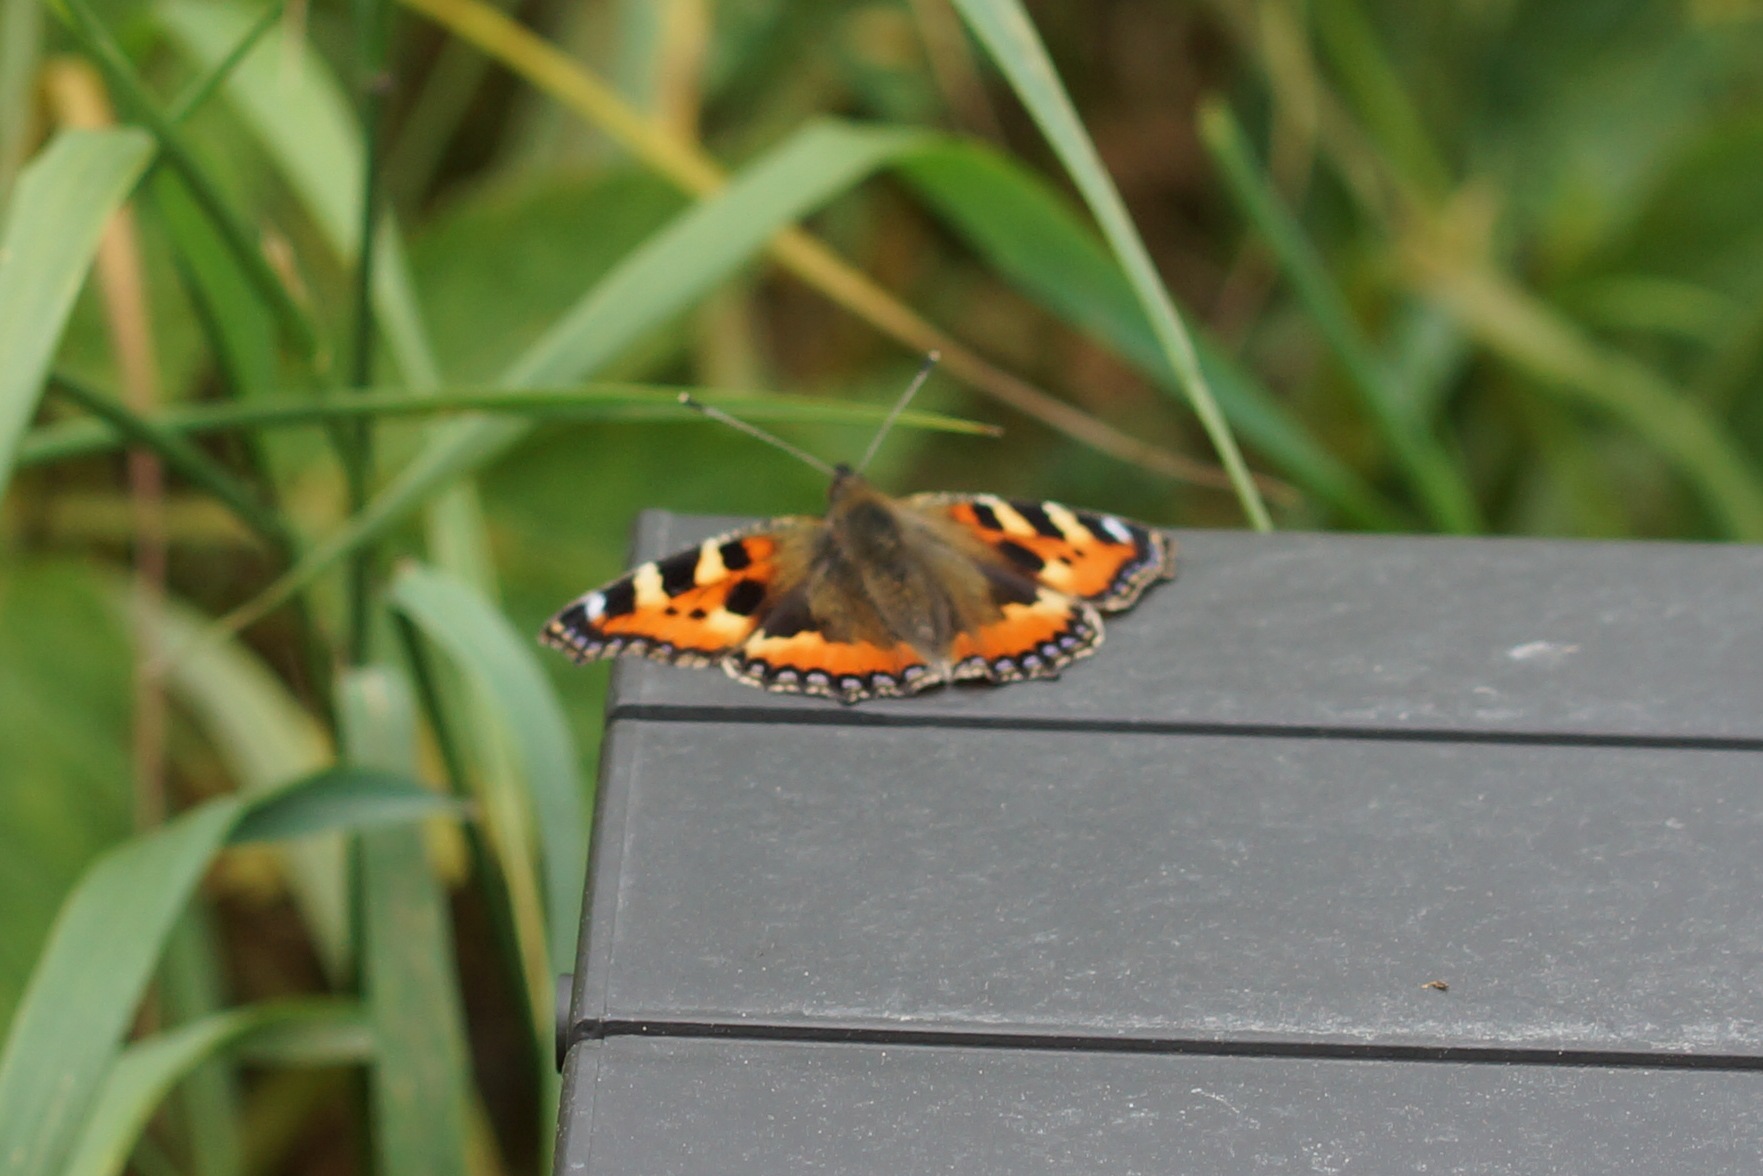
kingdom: Animalia
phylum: Arthropoda
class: Insecta
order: Lepidoptera
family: Nymphalidae
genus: Aglais
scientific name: Aglais urticae
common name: Nældens takvinge
